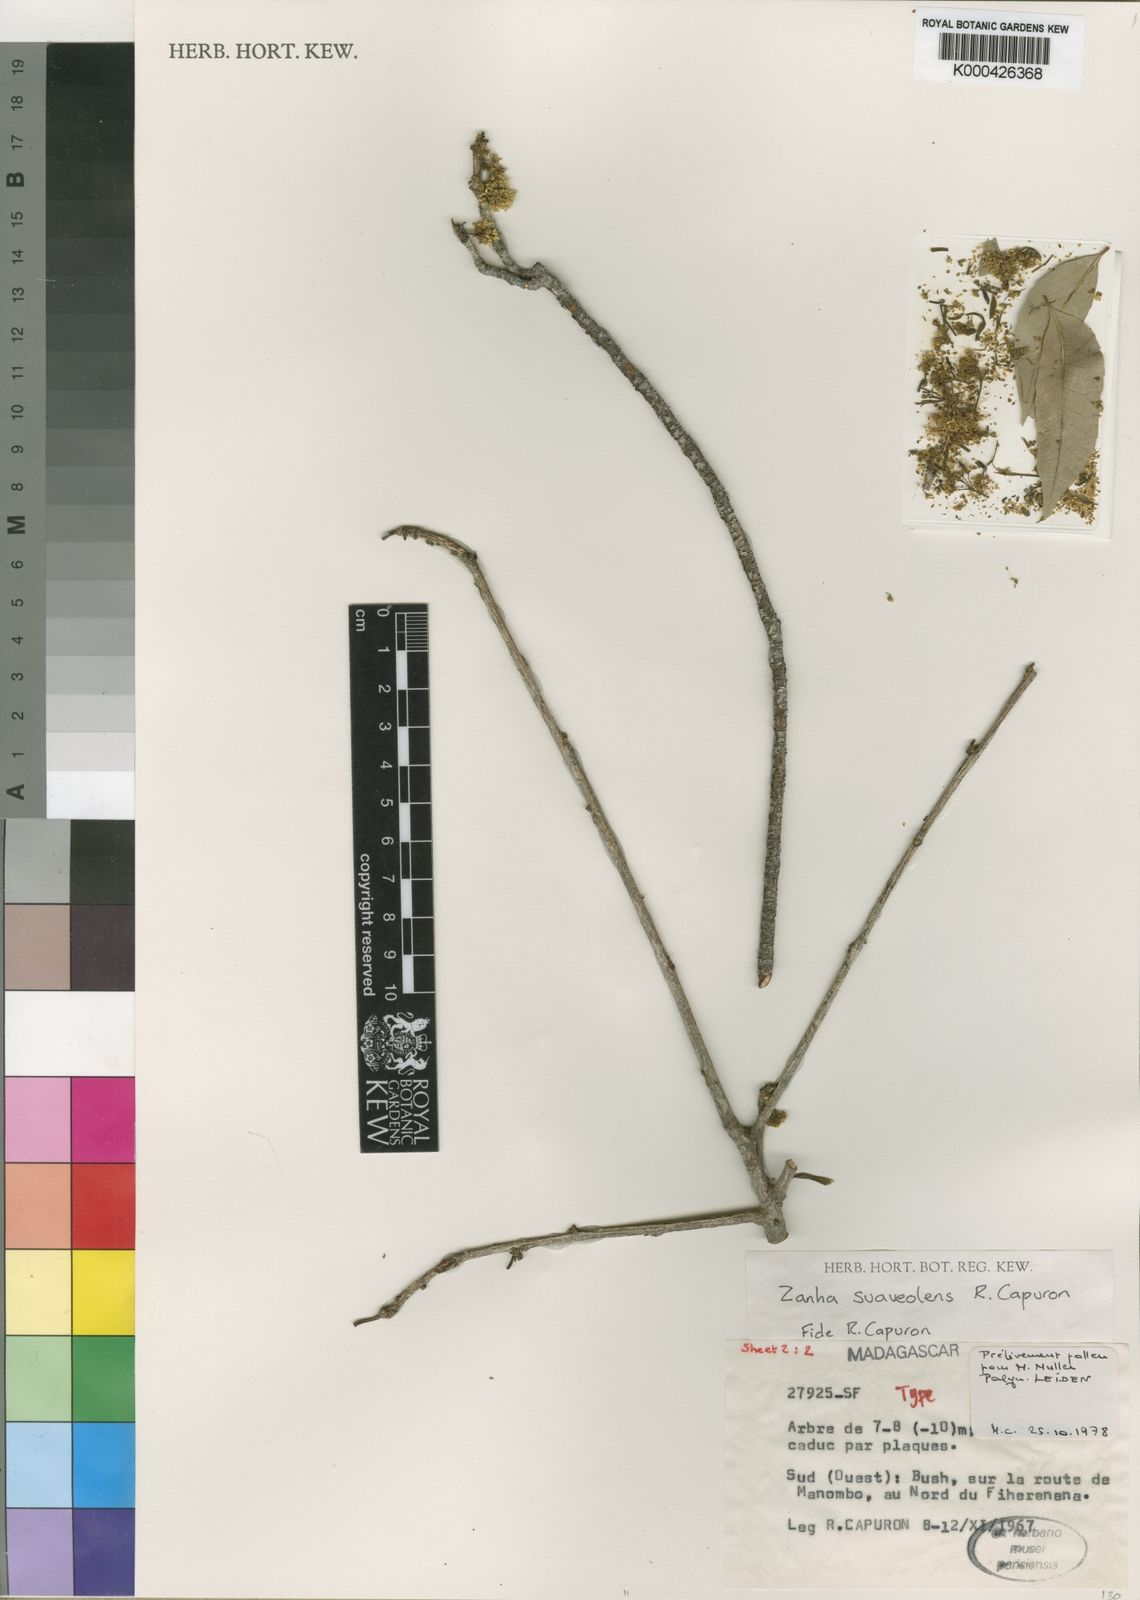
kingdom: Plantae
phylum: Tracheophyta
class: Magnoliopsida
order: Sapindales
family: Sapindaceae
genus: Zanha
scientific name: Zanha suaveolens
